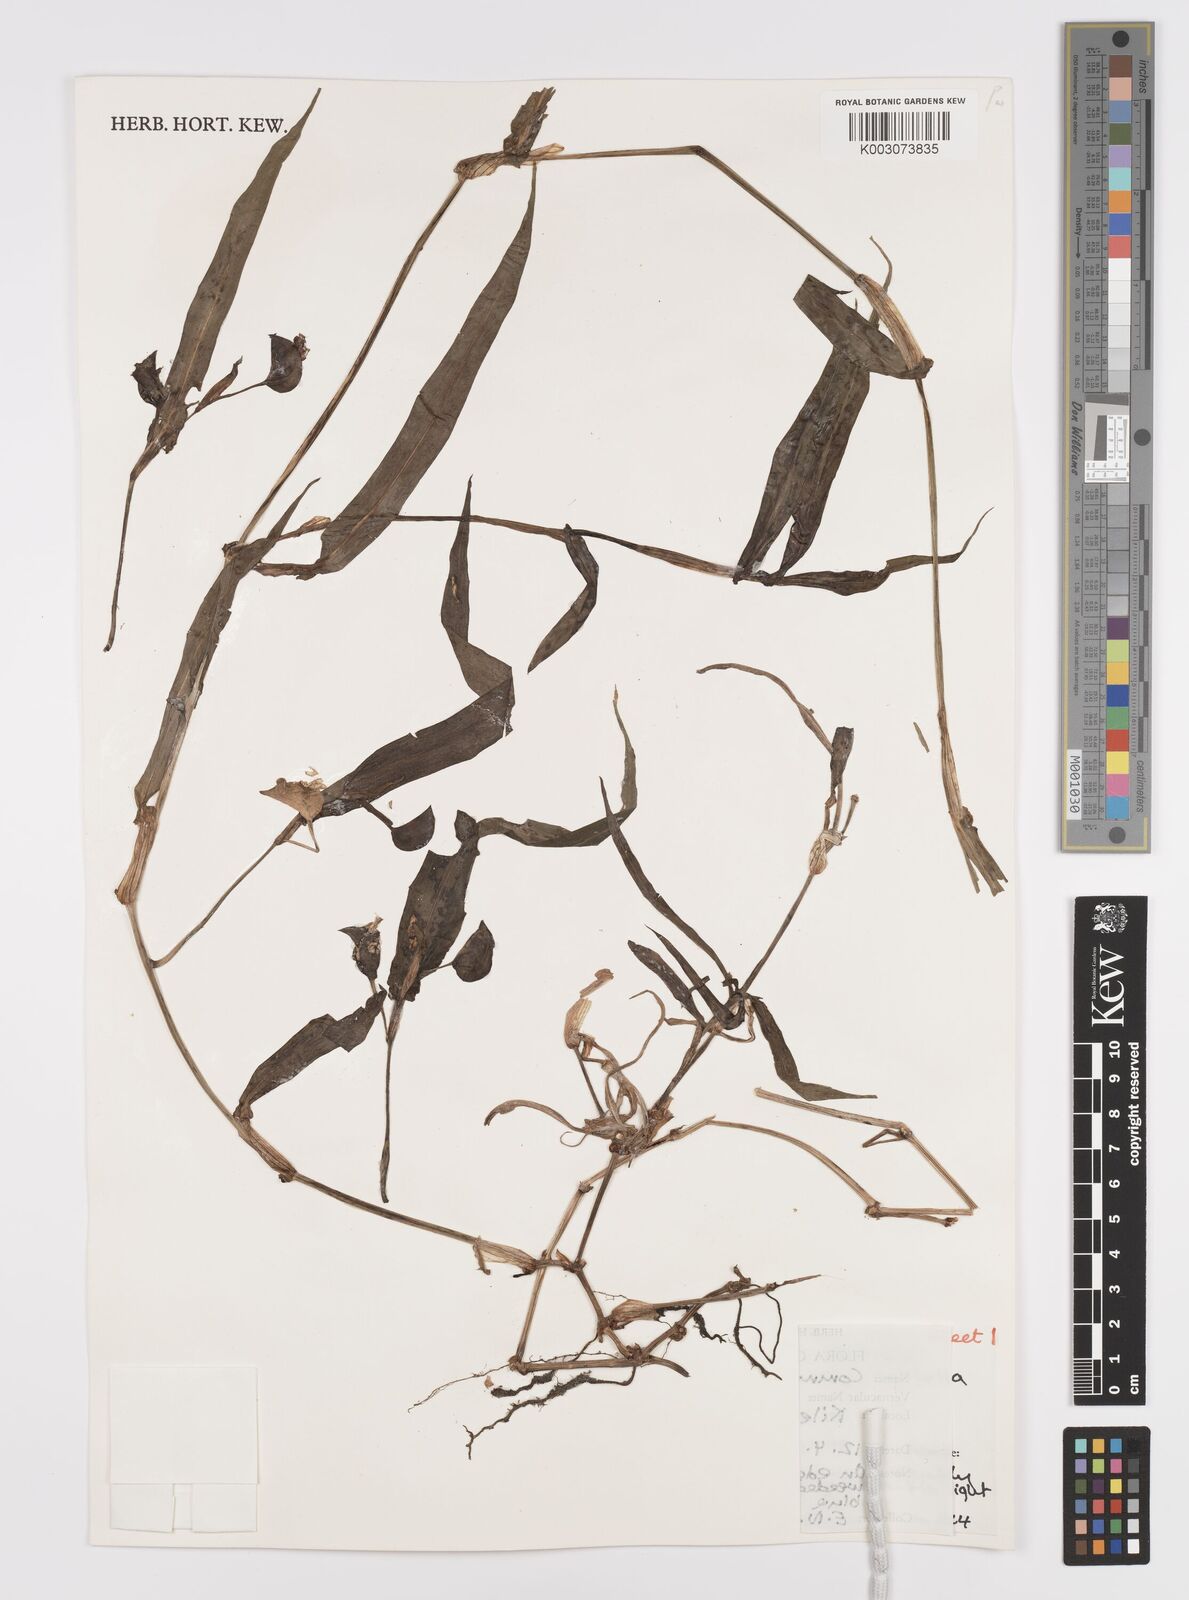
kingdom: Plantae
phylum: Tracheophyta
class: Liliopsida
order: Commelinales
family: Commelinaceae
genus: Commelina
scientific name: Commelina latifolia
